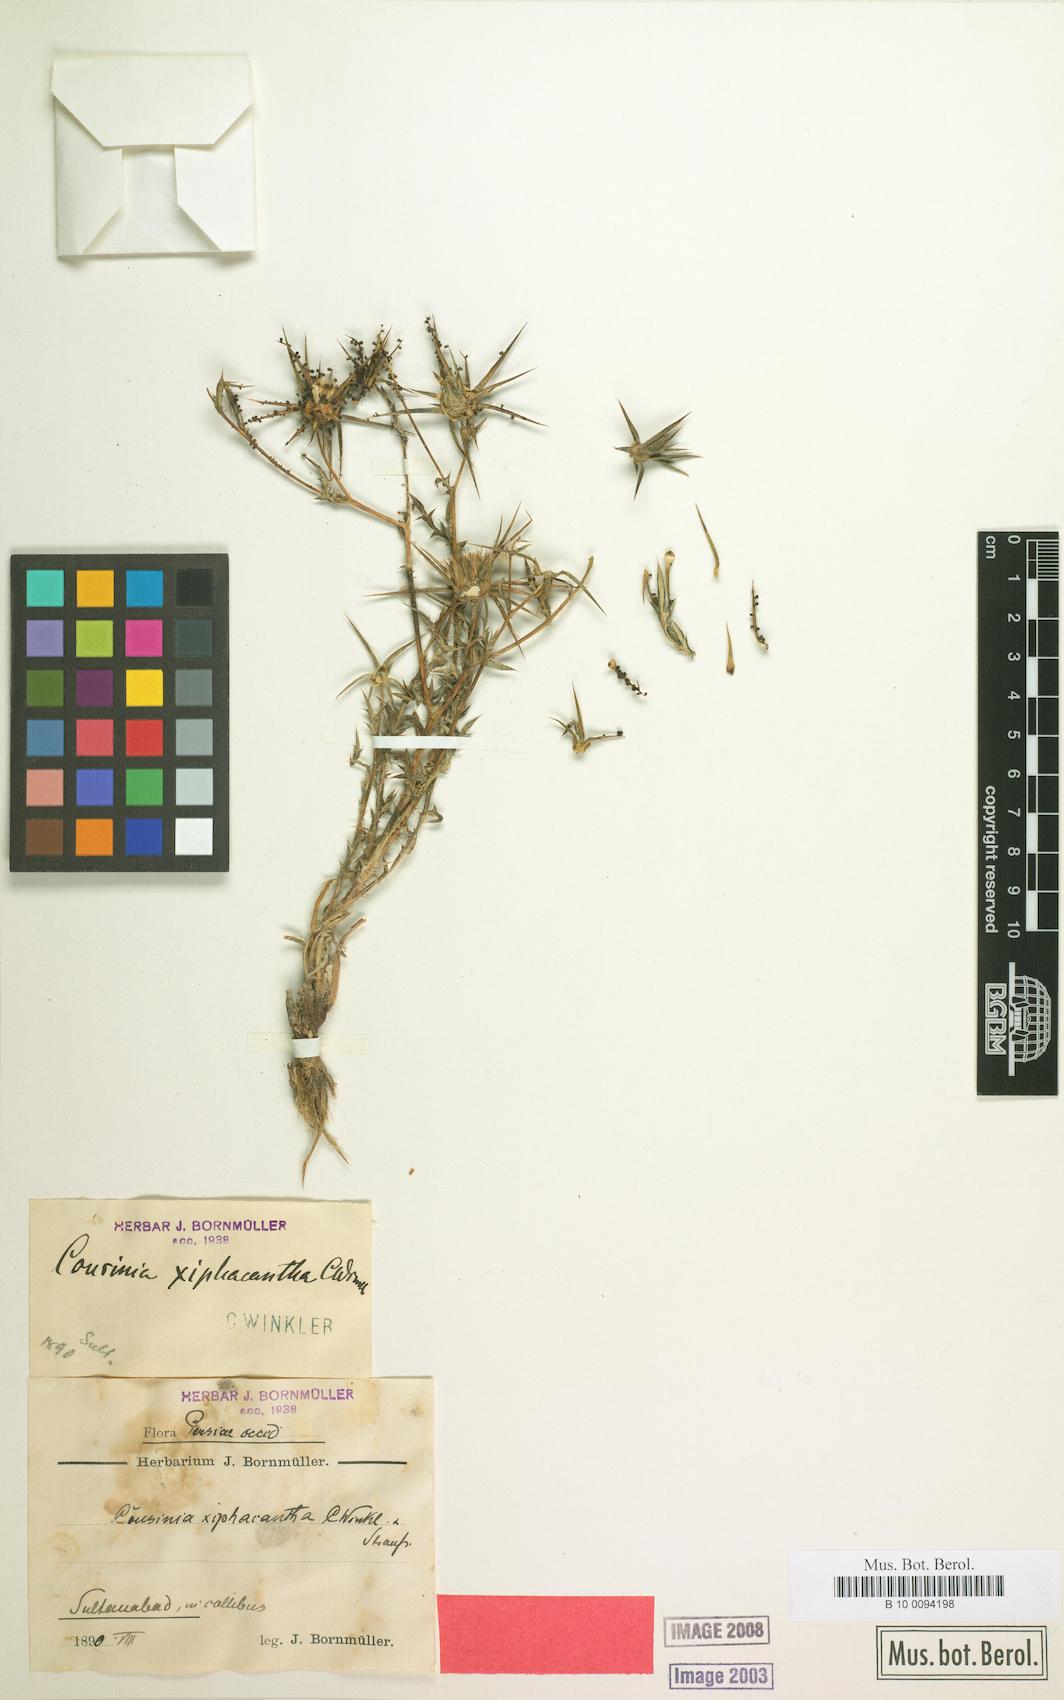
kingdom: Plantae
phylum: Tracheophyta
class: Magnoliopsida
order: Asterales
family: Asteraceae
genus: Cousinia
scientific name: Cousinia calcitrapa
